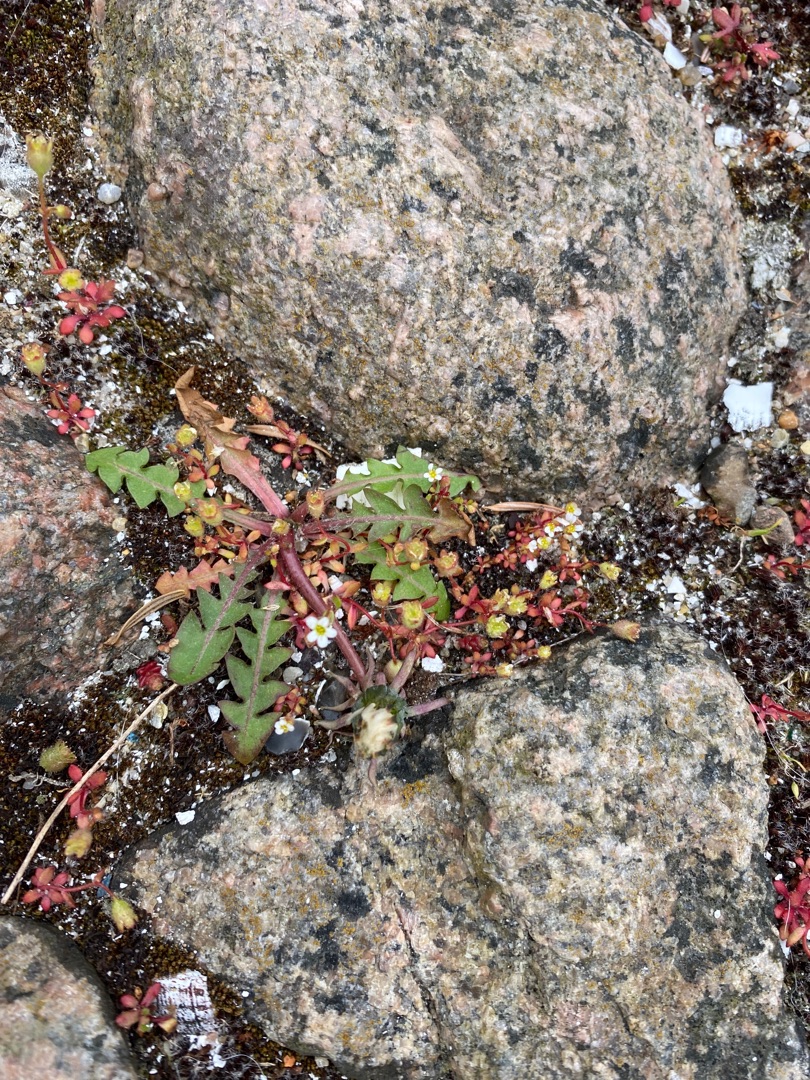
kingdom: Plantae
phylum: Tracheophyta
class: Magnoliopsida
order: Saxifragales
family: Saxifragaceae
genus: Saxifraga
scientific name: Saxifraga tridactylites
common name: Trekløft-stenbræk
